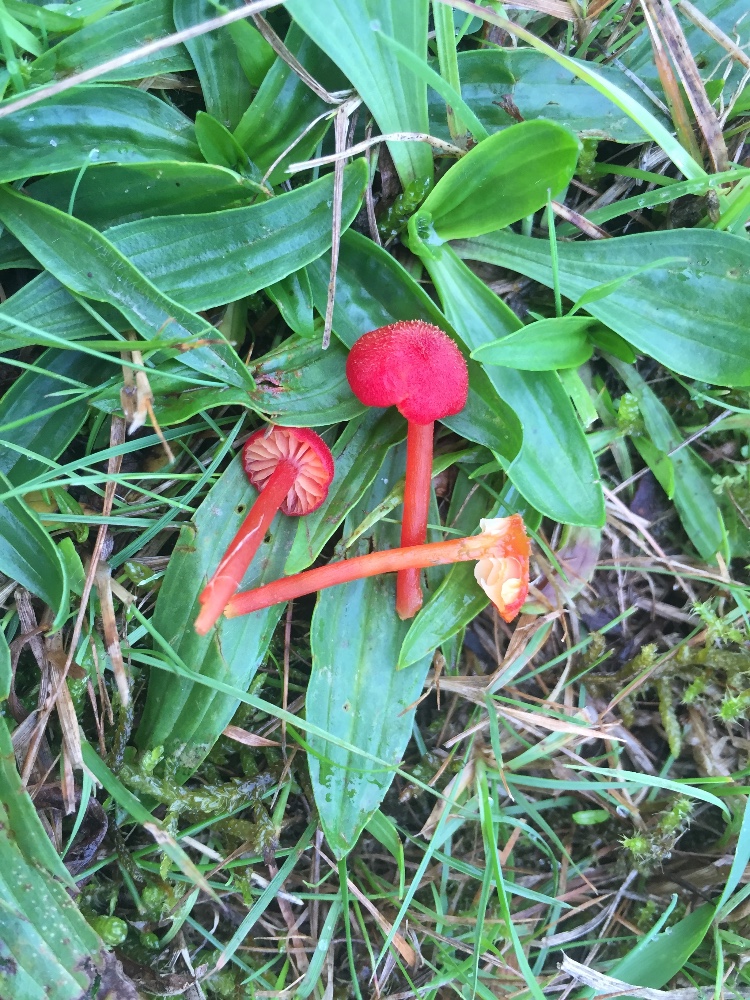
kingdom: Fungi
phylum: Basidiomycota
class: Agaricomycetes
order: Agaricales
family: Hygrophoraceae
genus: Hygrocybe
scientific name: Hygrocybe helobia
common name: hvidløgs-vokshat
